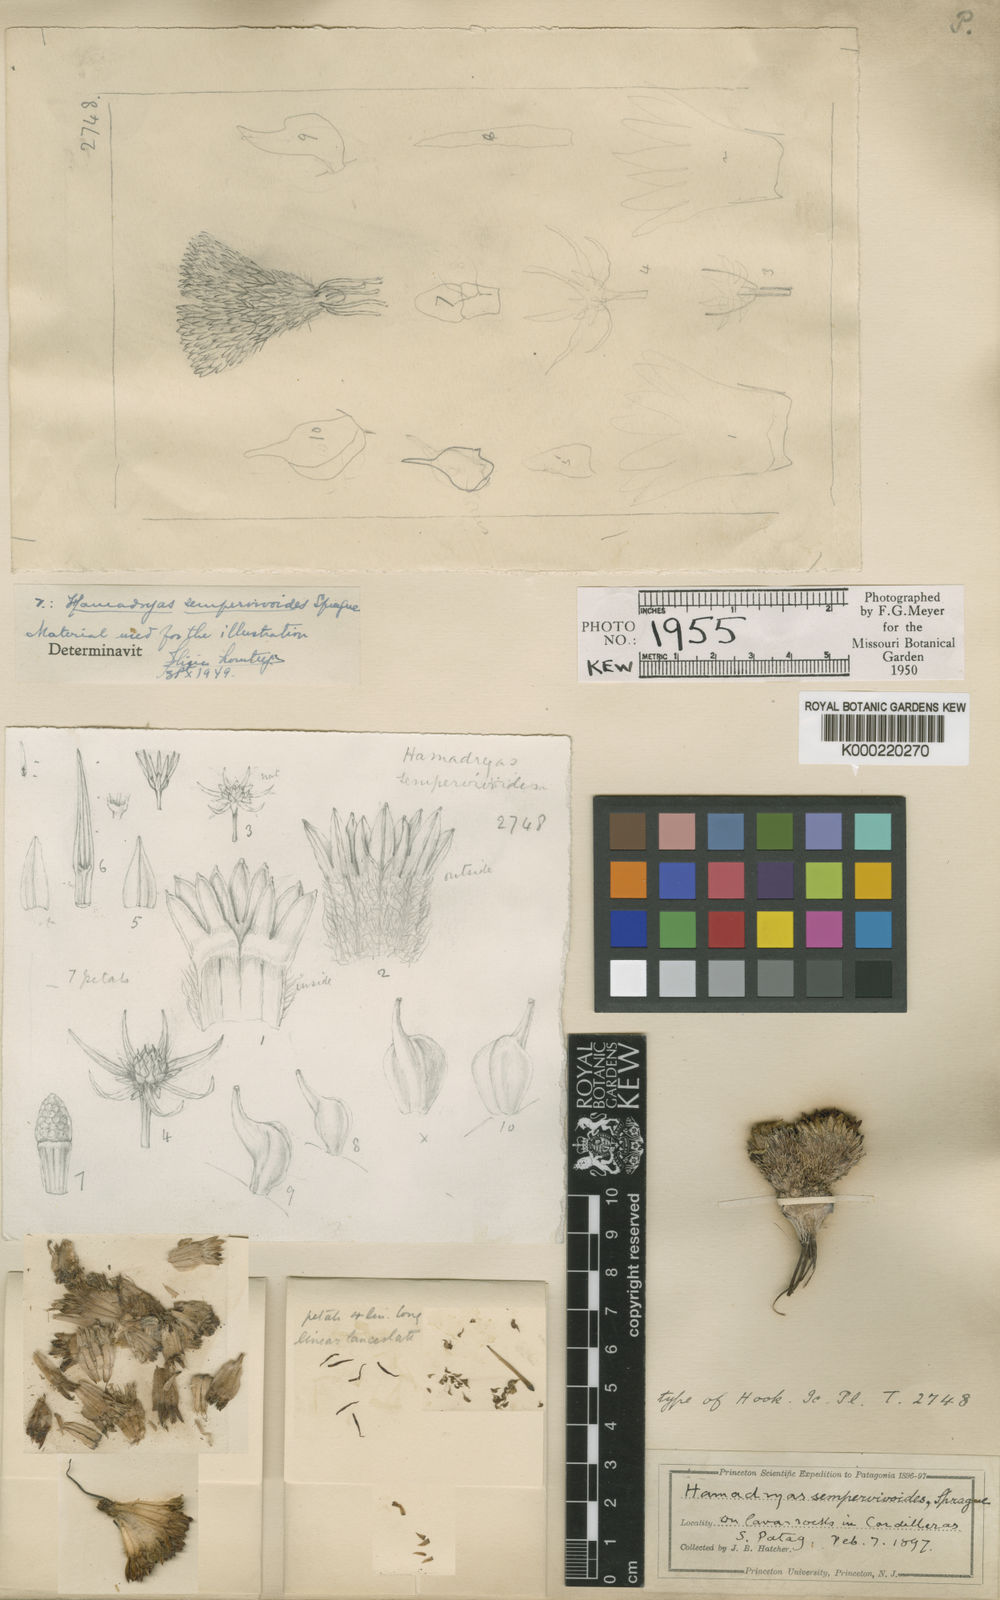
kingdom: Plantae
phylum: Tracheophyta
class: Magnoliopsida
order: Ranunculales
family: Ranunculaceae
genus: Hamadryas
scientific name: Hamadryas sempervivoides
